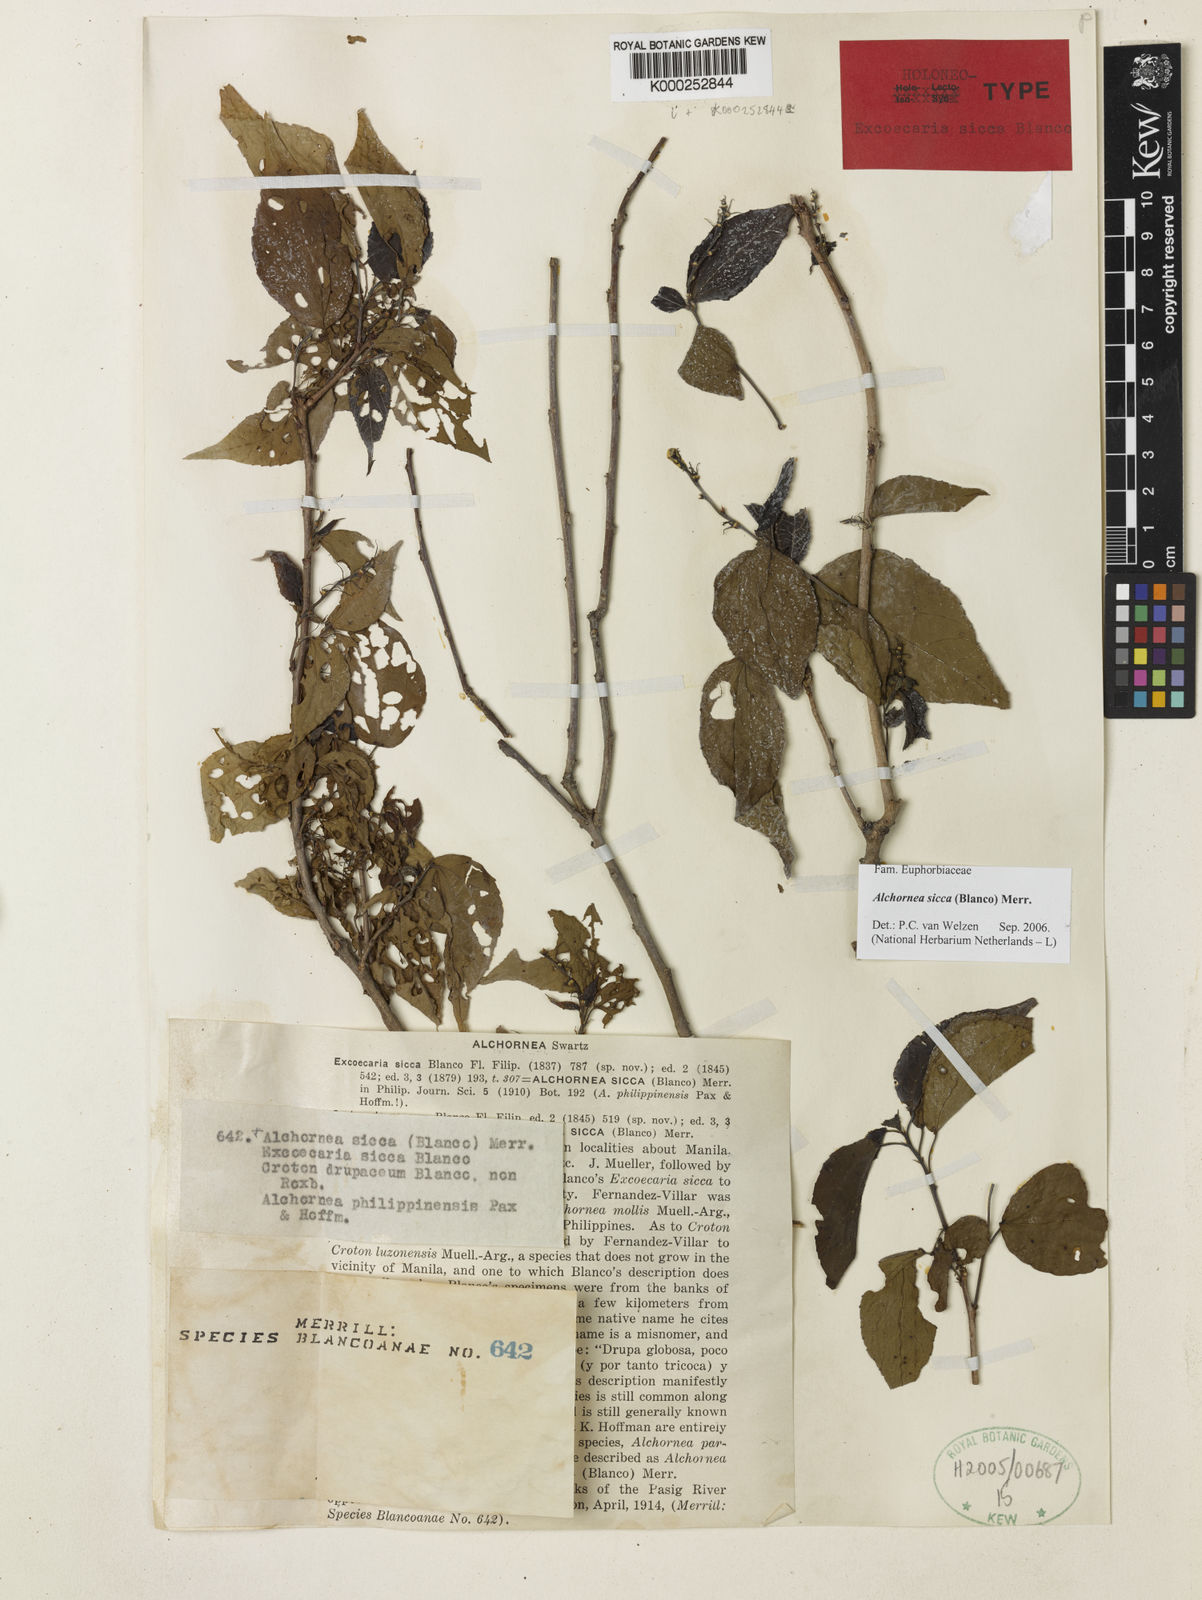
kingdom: Plantae
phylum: Tracheophyta
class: Magnoliopsida
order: Malpighiales
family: Euphorbiaceae
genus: Alchornea
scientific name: Alchornea sicca
